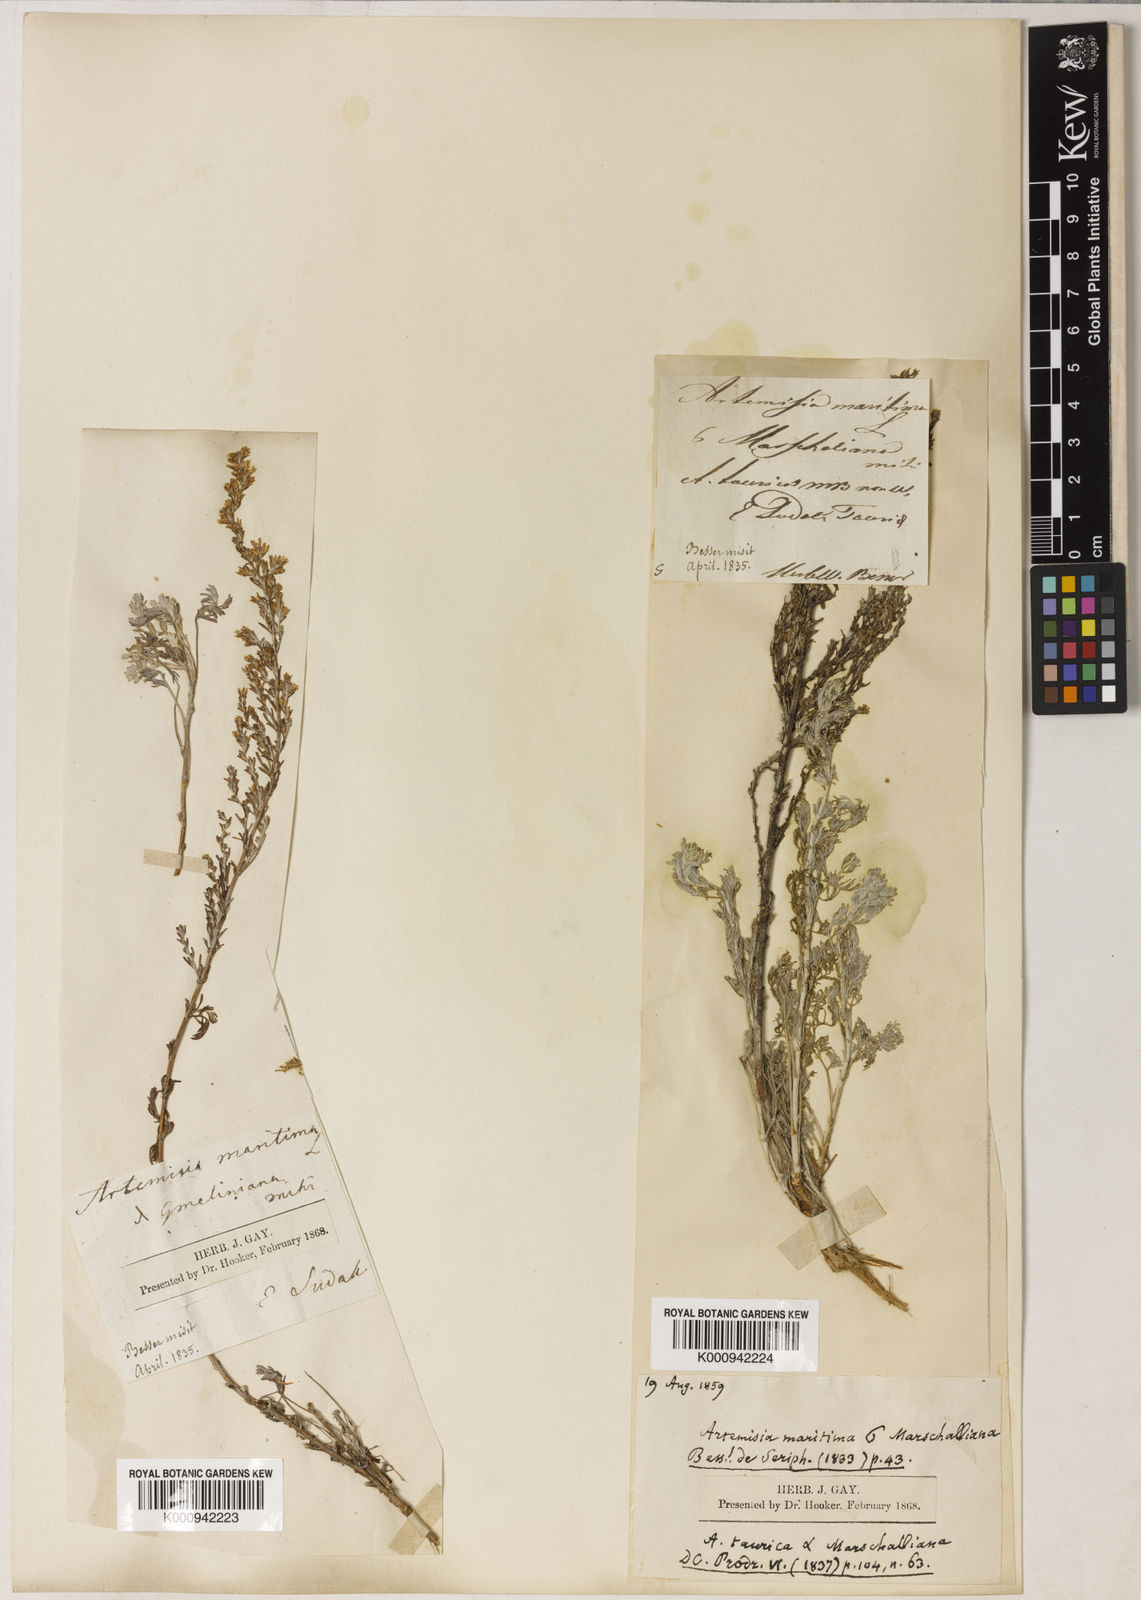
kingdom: Plantae
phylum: Tracheophyta
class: Magnoliopsida
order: Asterales
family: Asteraceae
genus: Artemisia
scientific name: Artemisia taurica
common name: Tauric wormwood
